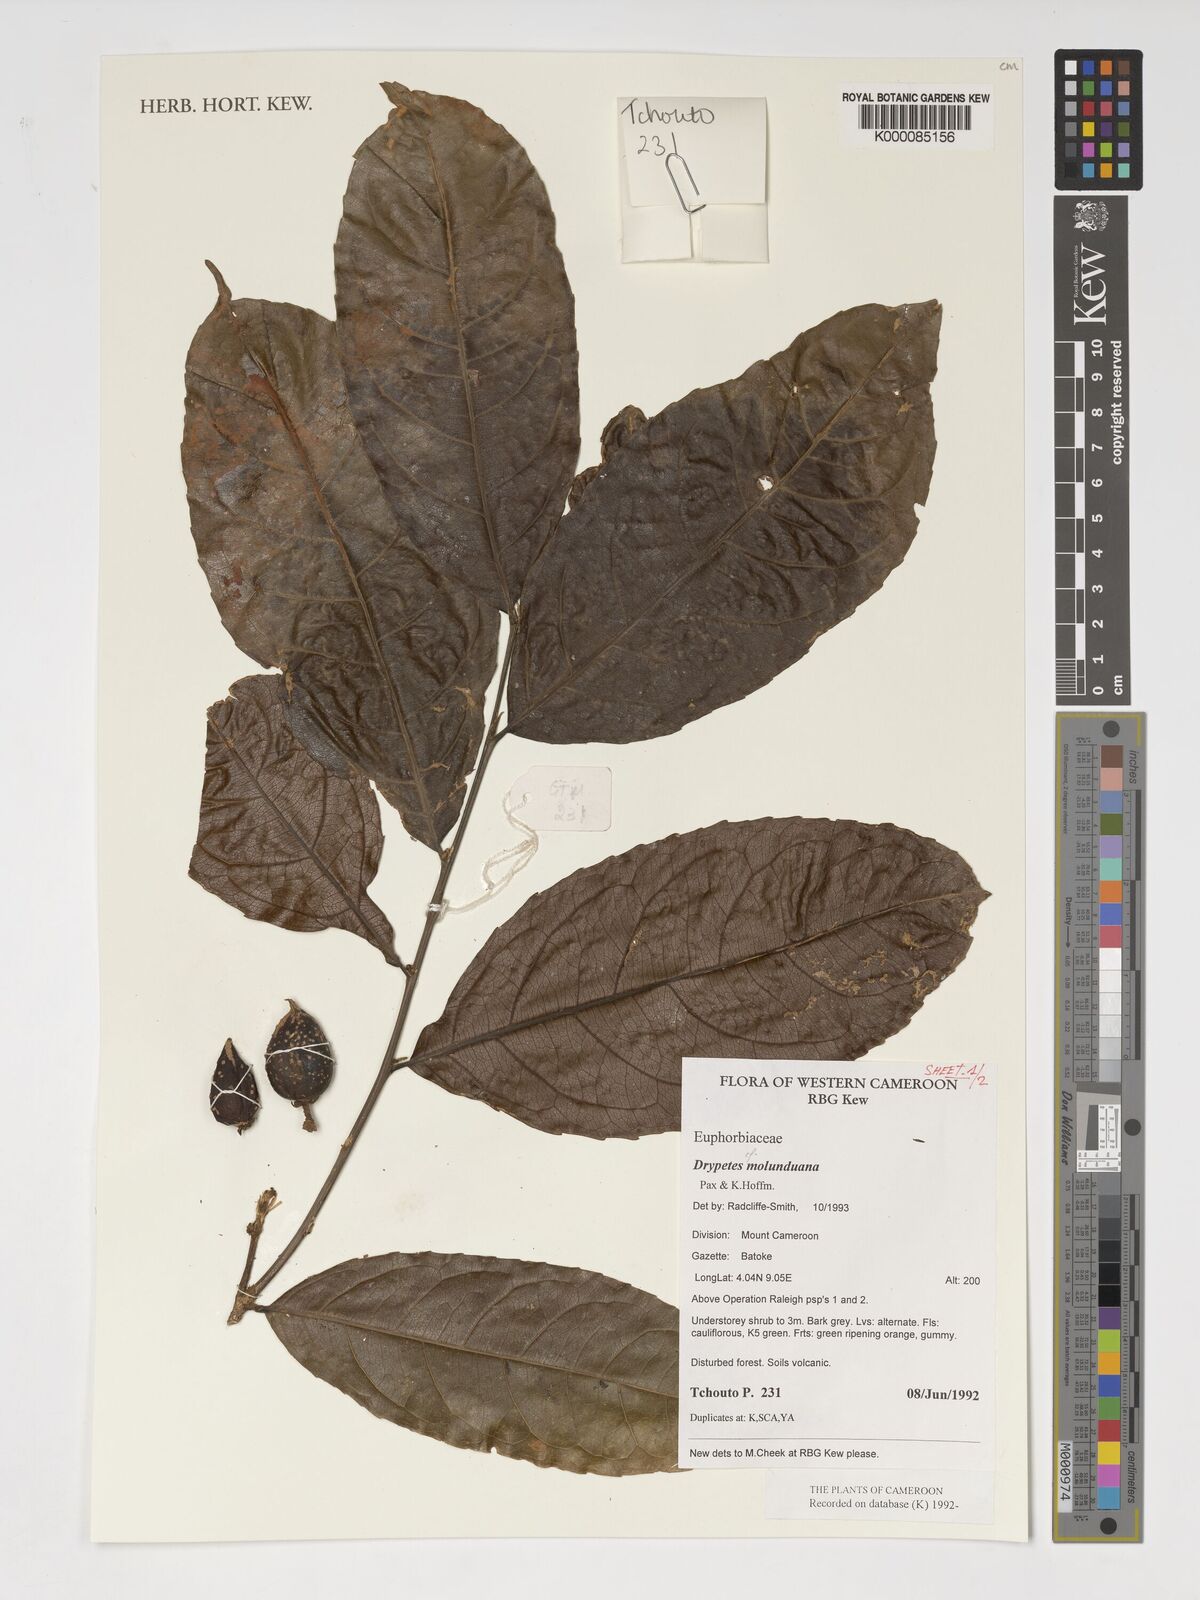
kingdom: Plantae
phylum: Tracheophyta
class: Magnoliopsida
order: Malpighiales
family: Putranjivaceae
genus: Drypetes
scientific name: Drypetes molunduana
